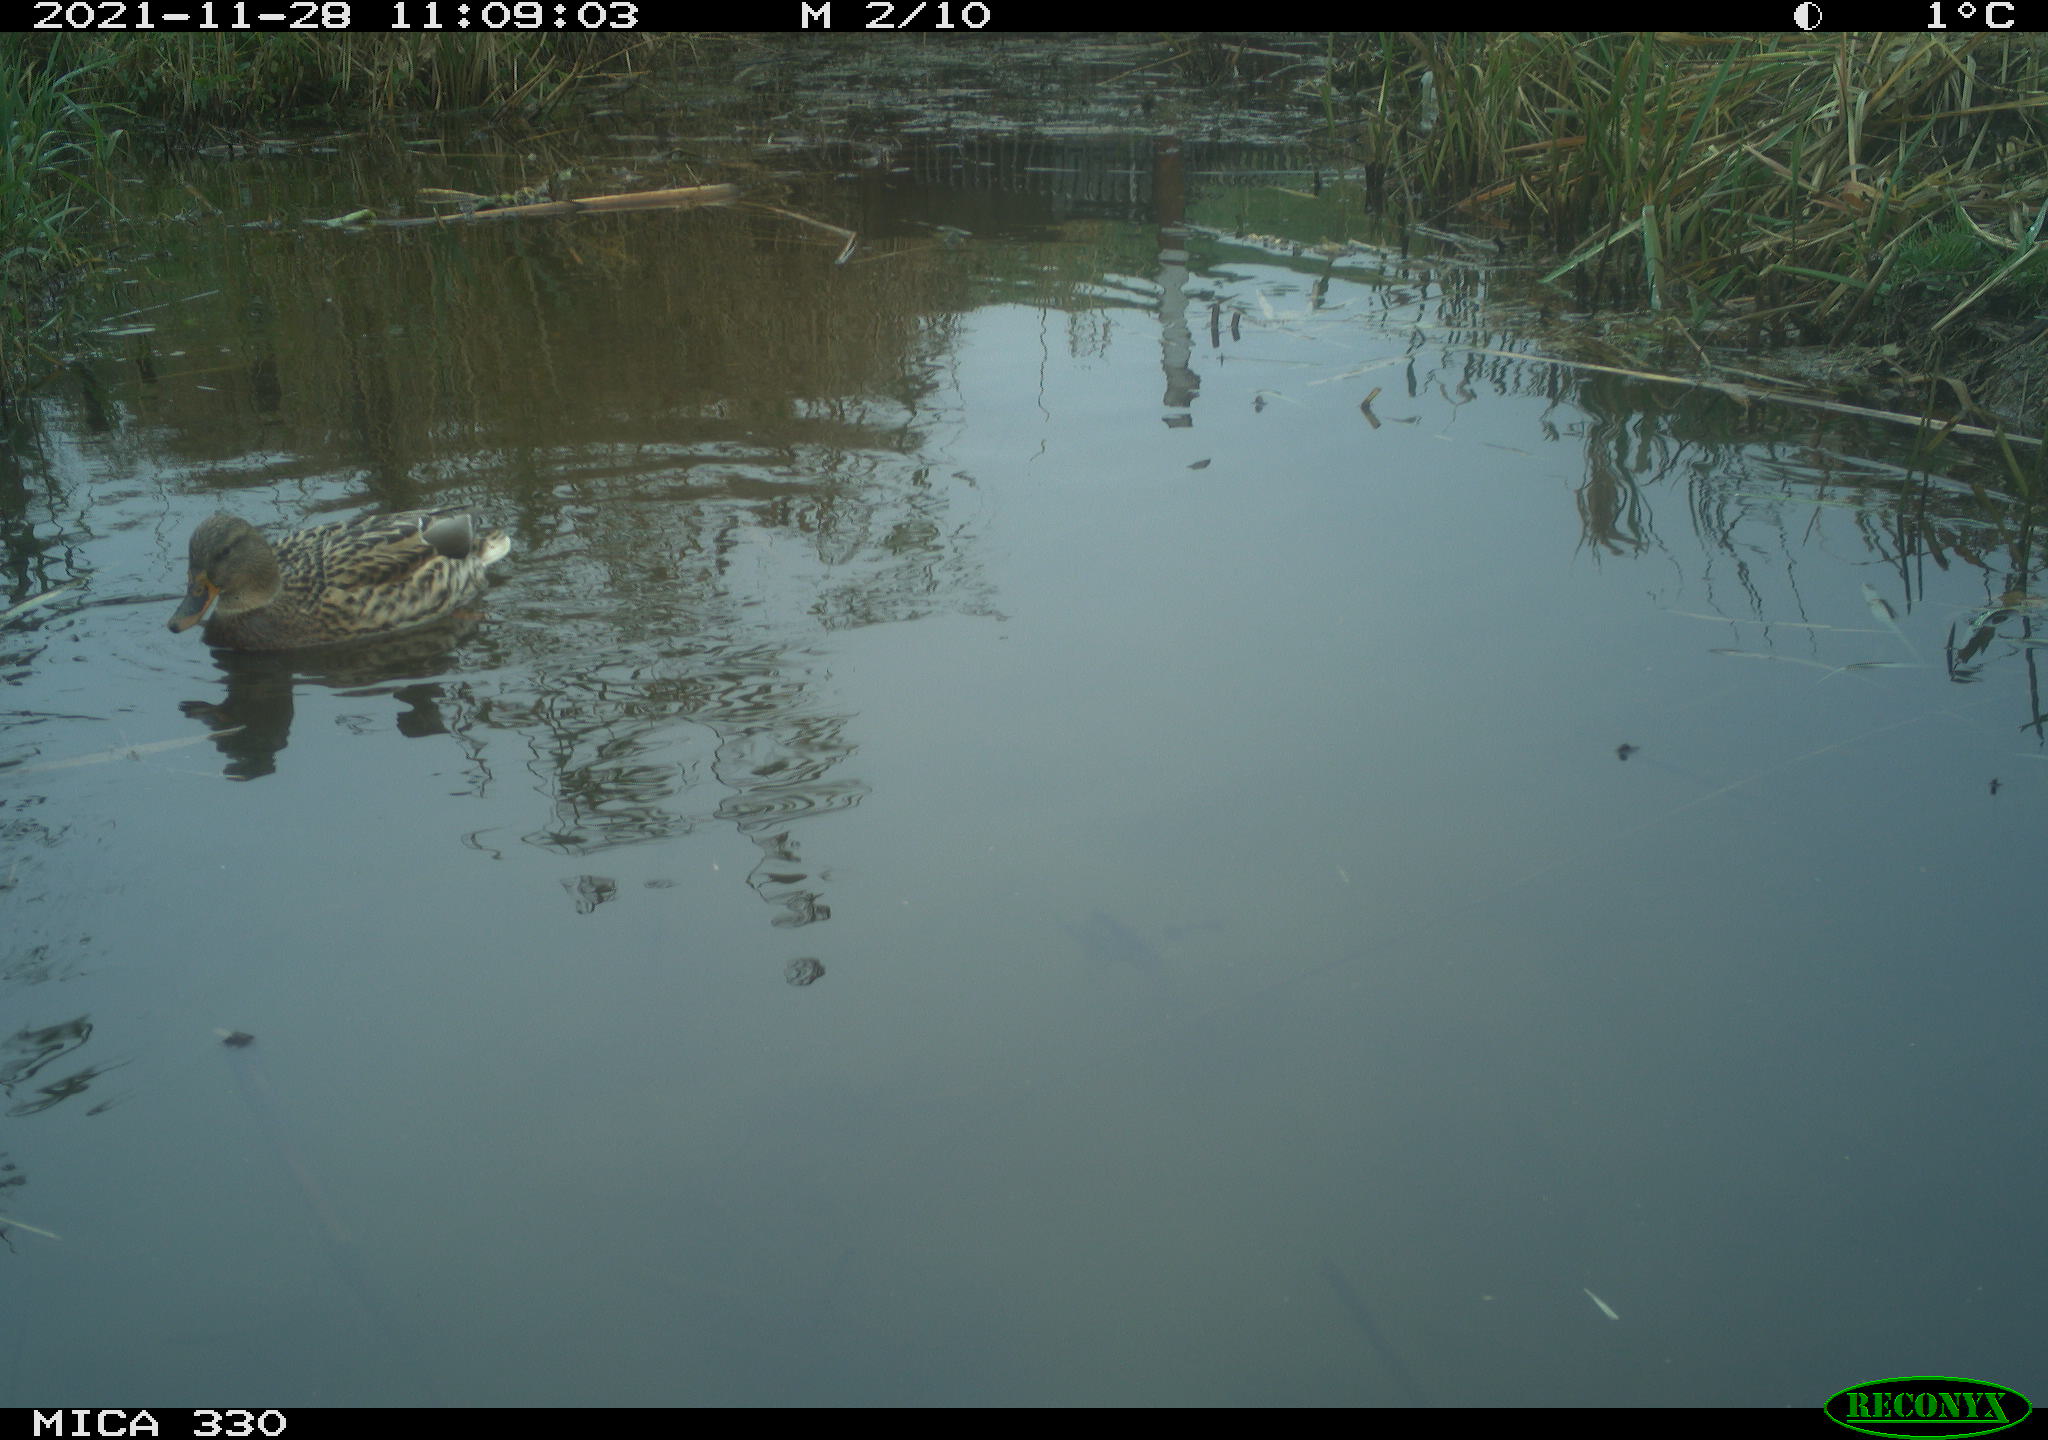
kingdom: Animalia
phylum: Chordata
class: Aves
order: Anseriformes
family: Anatidae
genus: Anas
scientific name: Anas platyrhynchos
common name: Mallard
